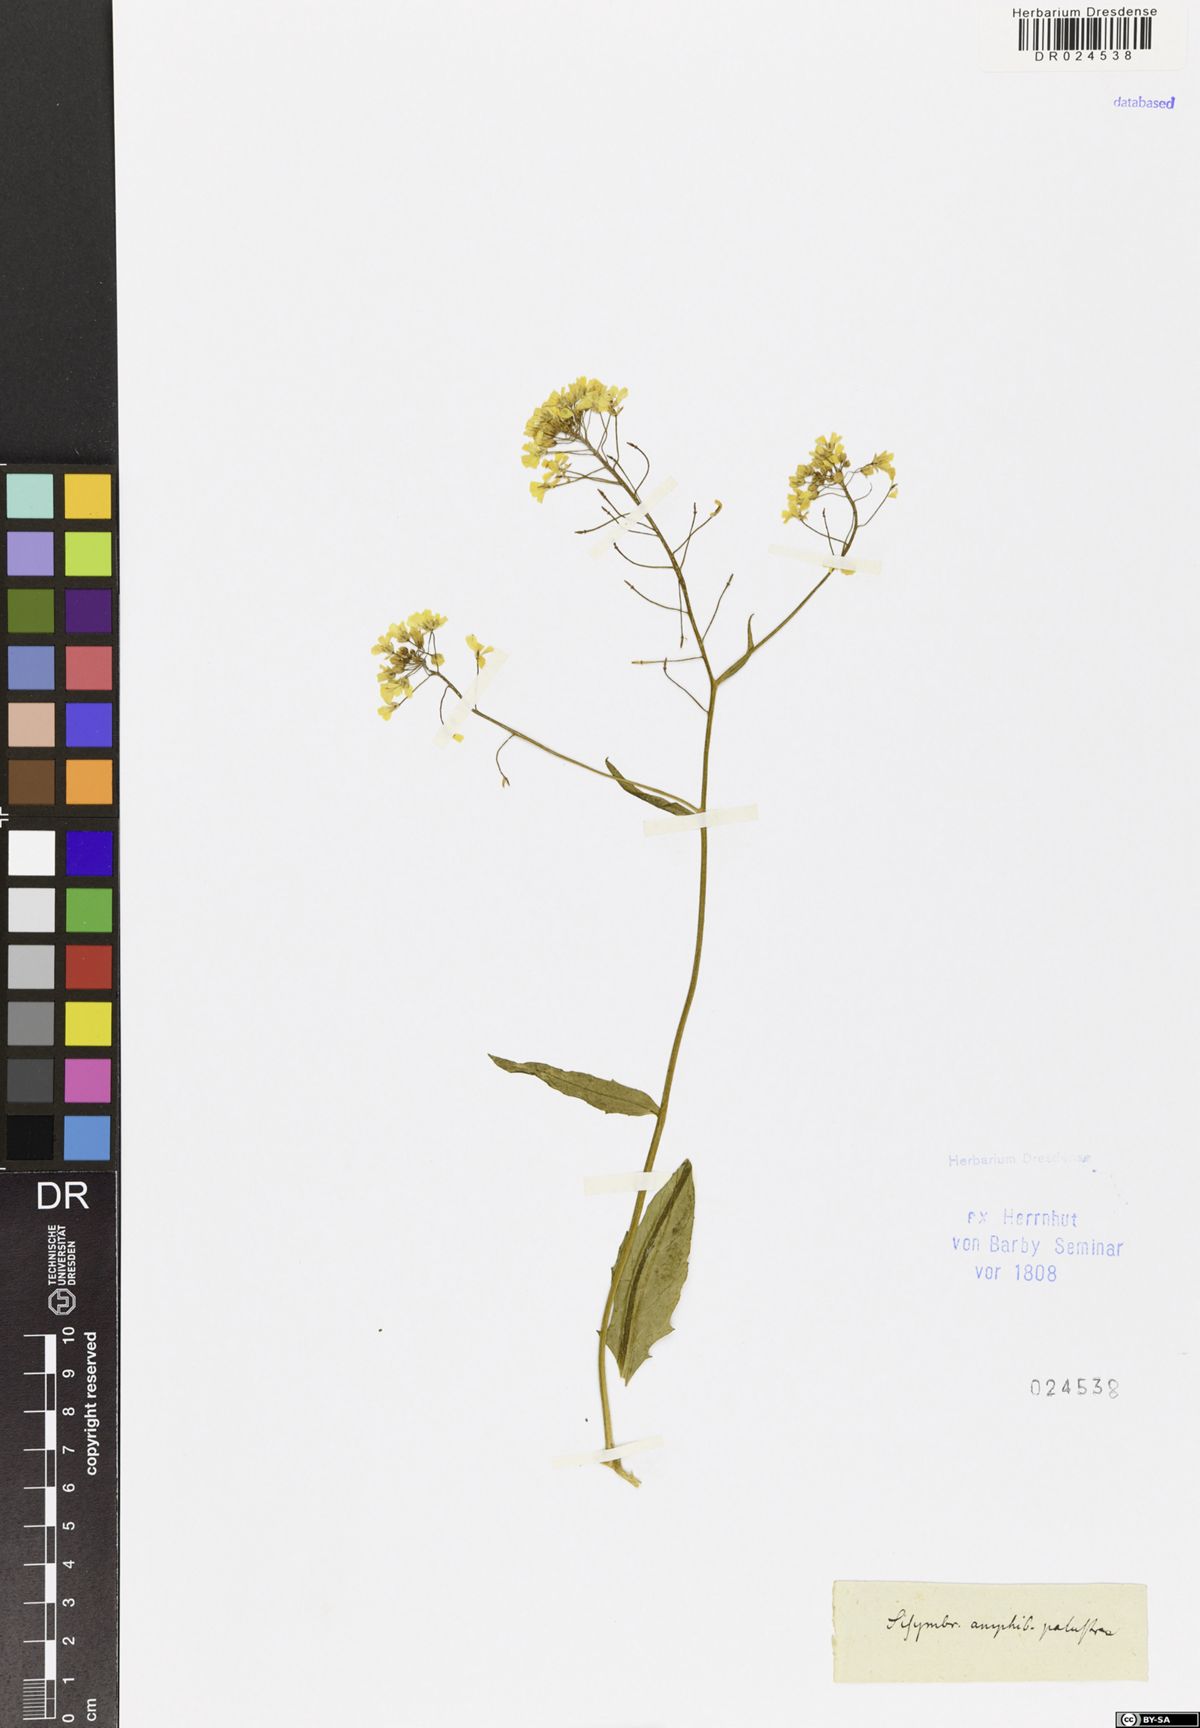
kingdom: Plantae
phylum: Tracheophyta
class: Magnoliopsida
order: Brassicales
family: Brassicaceae
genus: Rorippa
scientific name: Rorippa austriaca
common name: Austrian yellow-cress
